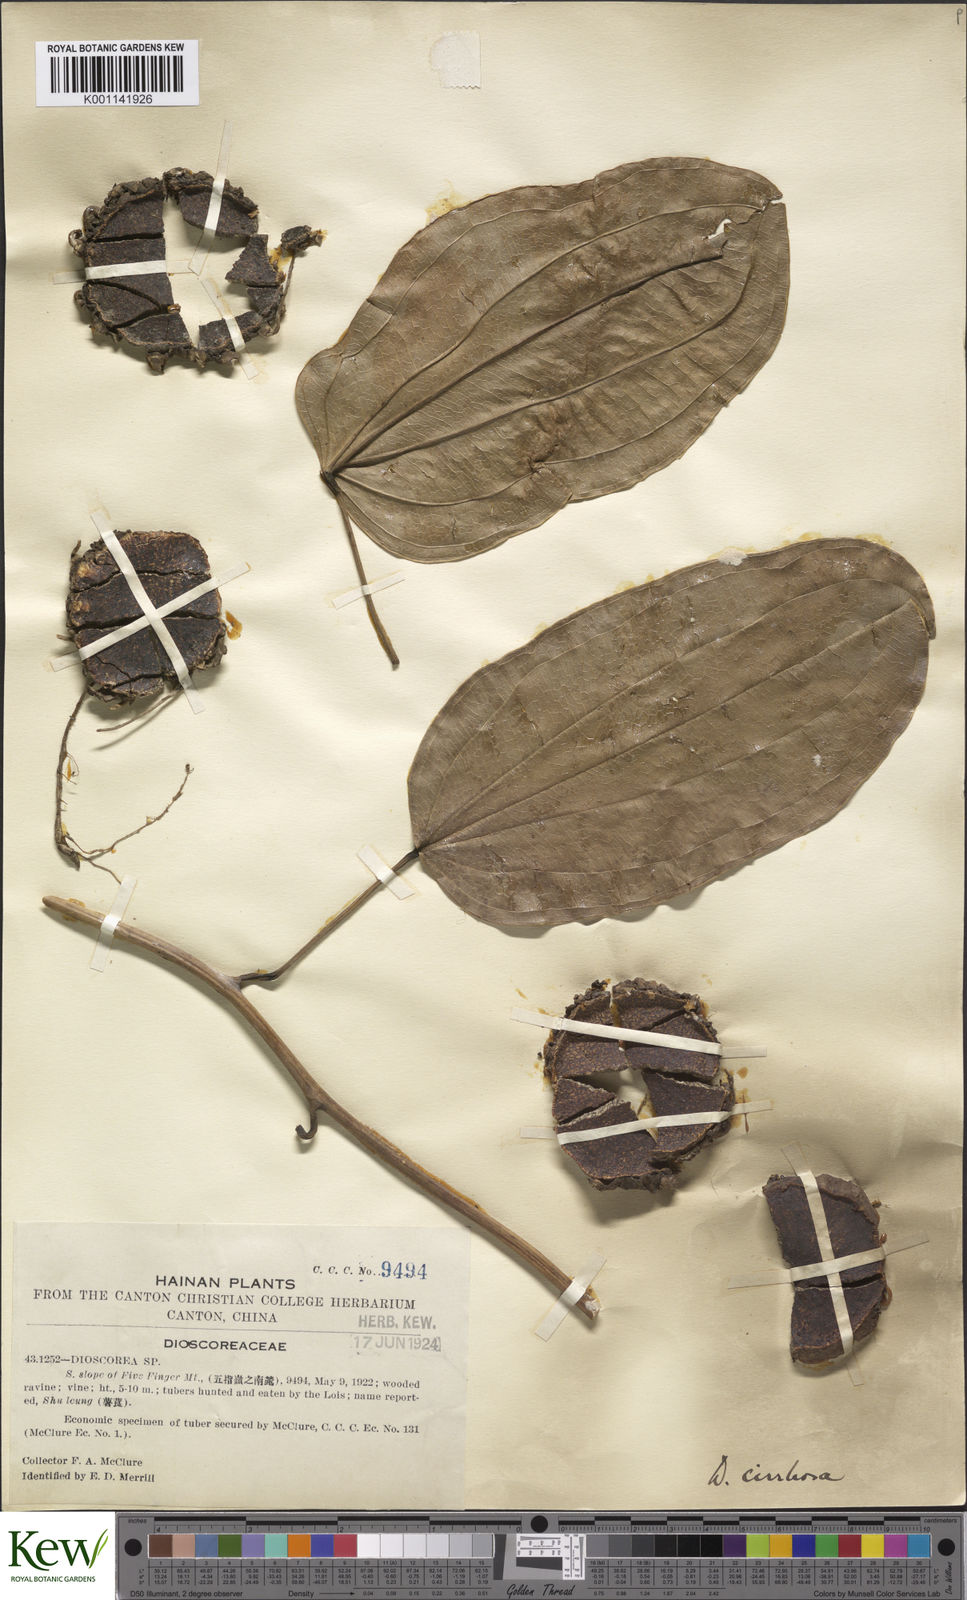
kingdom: Plantae
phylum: Tracheophyta
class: Liliopsida
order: Dioscoreales
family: Dioscoreaceae
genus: Dioscorea
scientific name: Dioscorea cirrhosa
